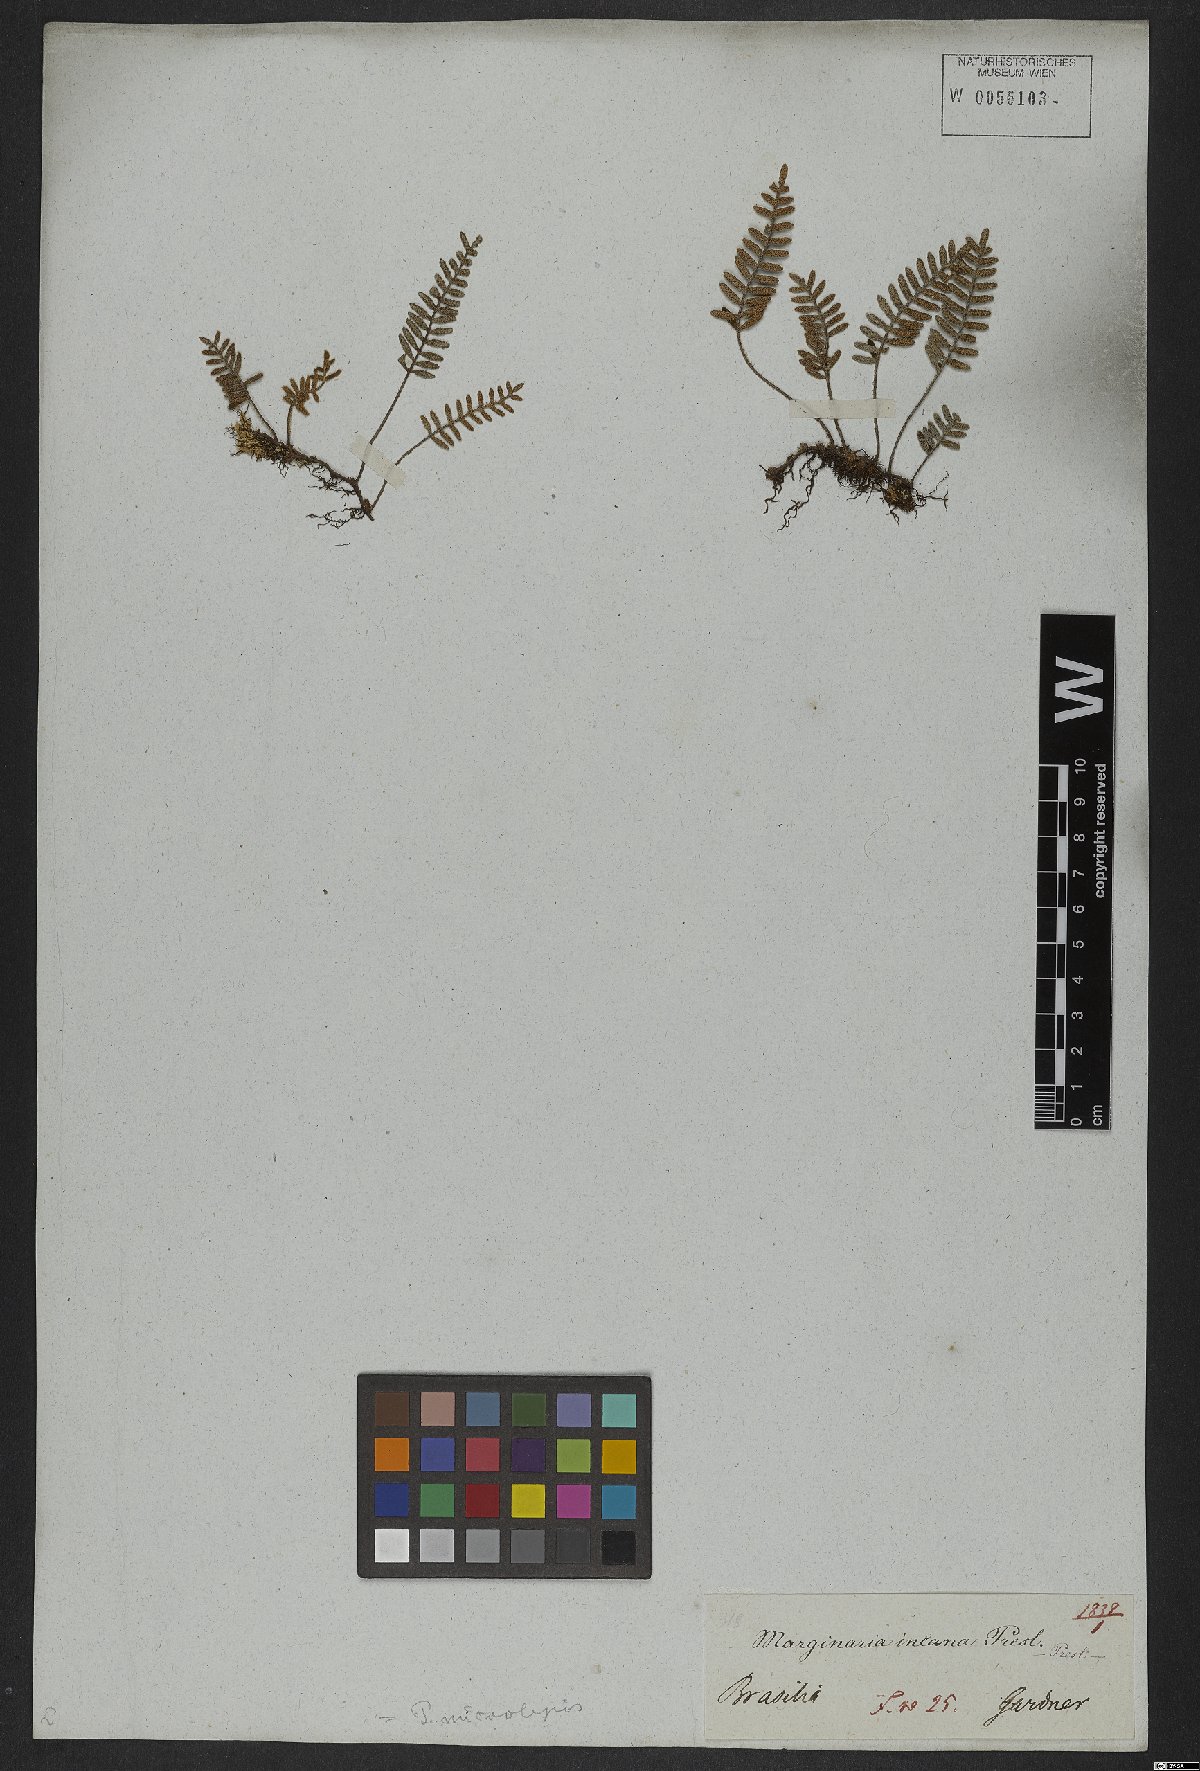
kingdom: Plantae
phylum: Tracheophyta
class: Polypodiopsida
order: Polypodiales
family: Polypodiaceae
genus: Pleopeltis
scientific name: Pleopeltis polypodioides
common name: Resurrection fern
